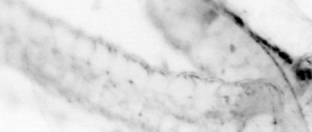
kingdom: Animalia
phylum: Chaetognatha
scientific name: Chaetognatha
